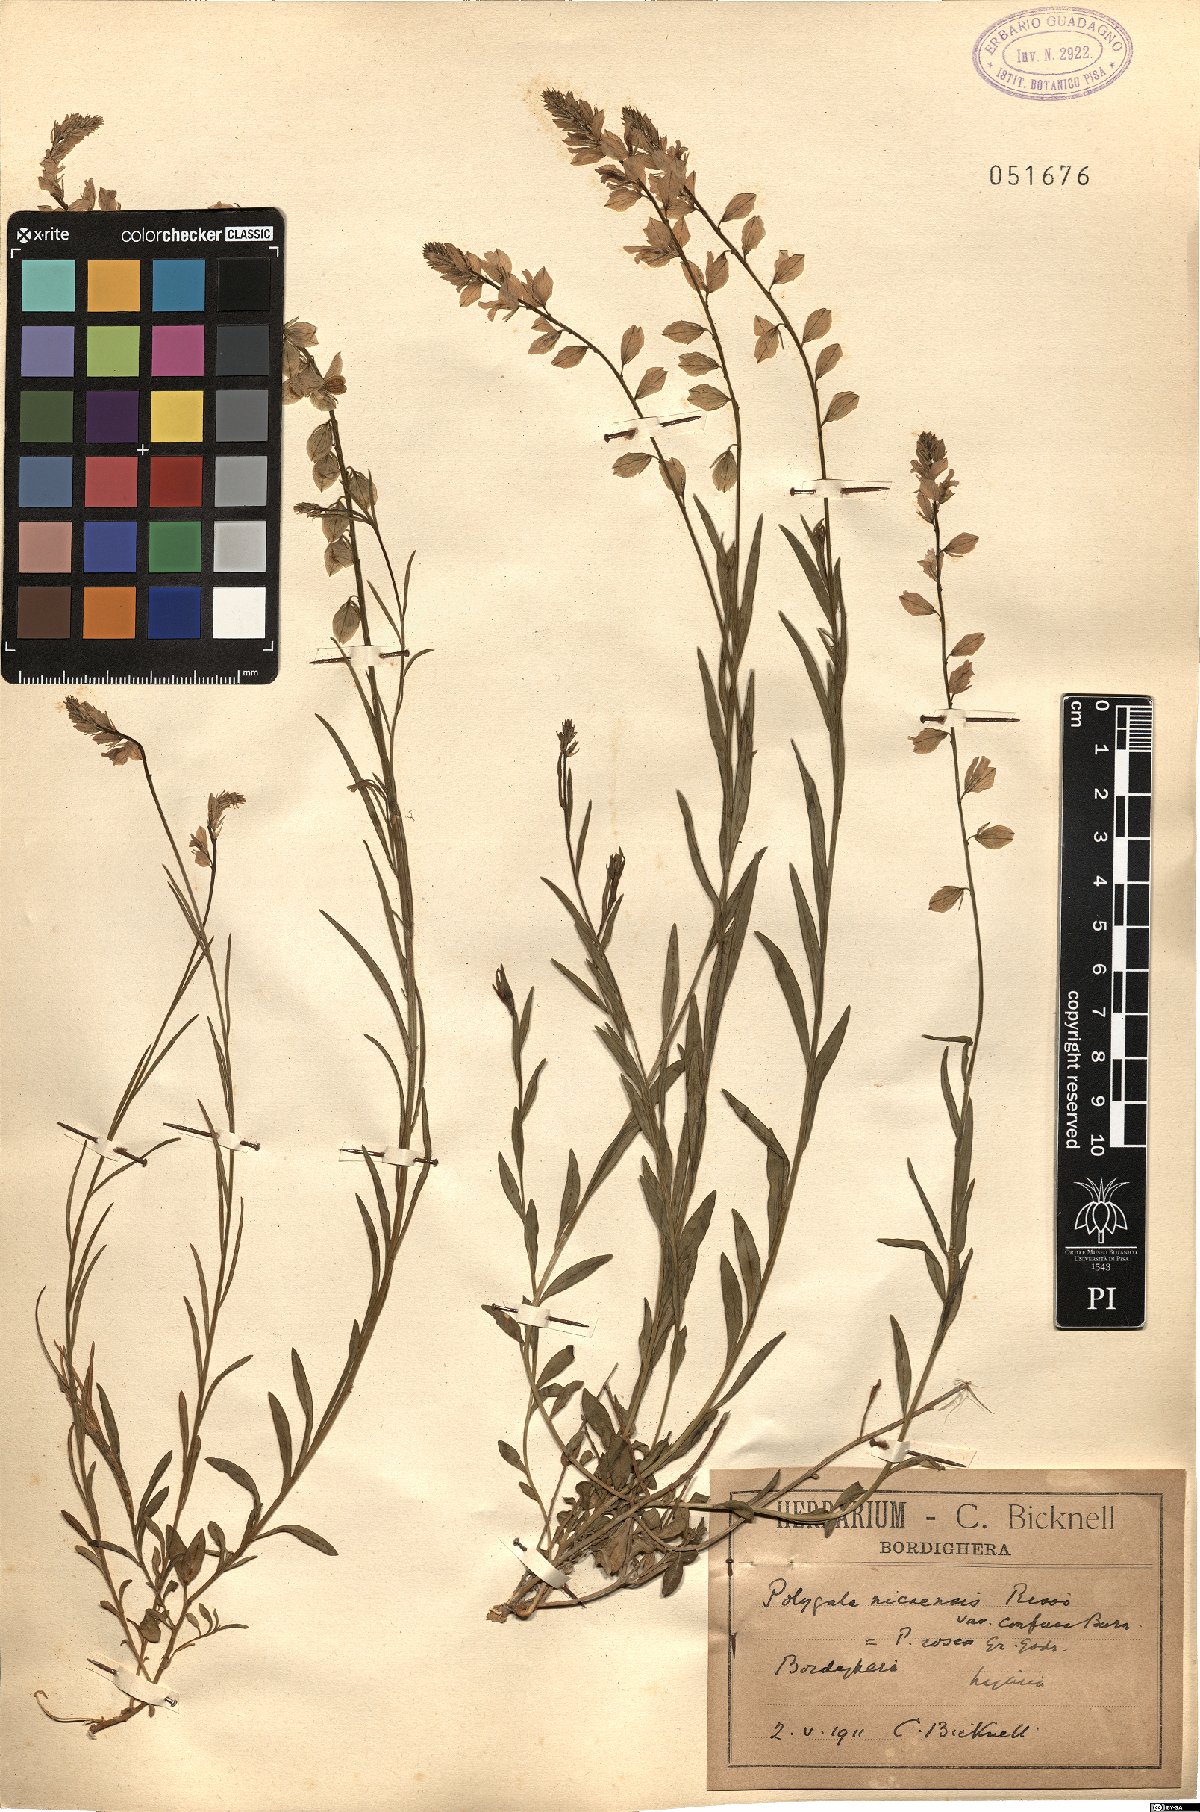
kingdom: Plantae
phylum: Tracheophyta
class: Magnoliopsida
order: Fabales
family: Polygalaceae
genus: Polygala
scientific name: Polygala rosea
